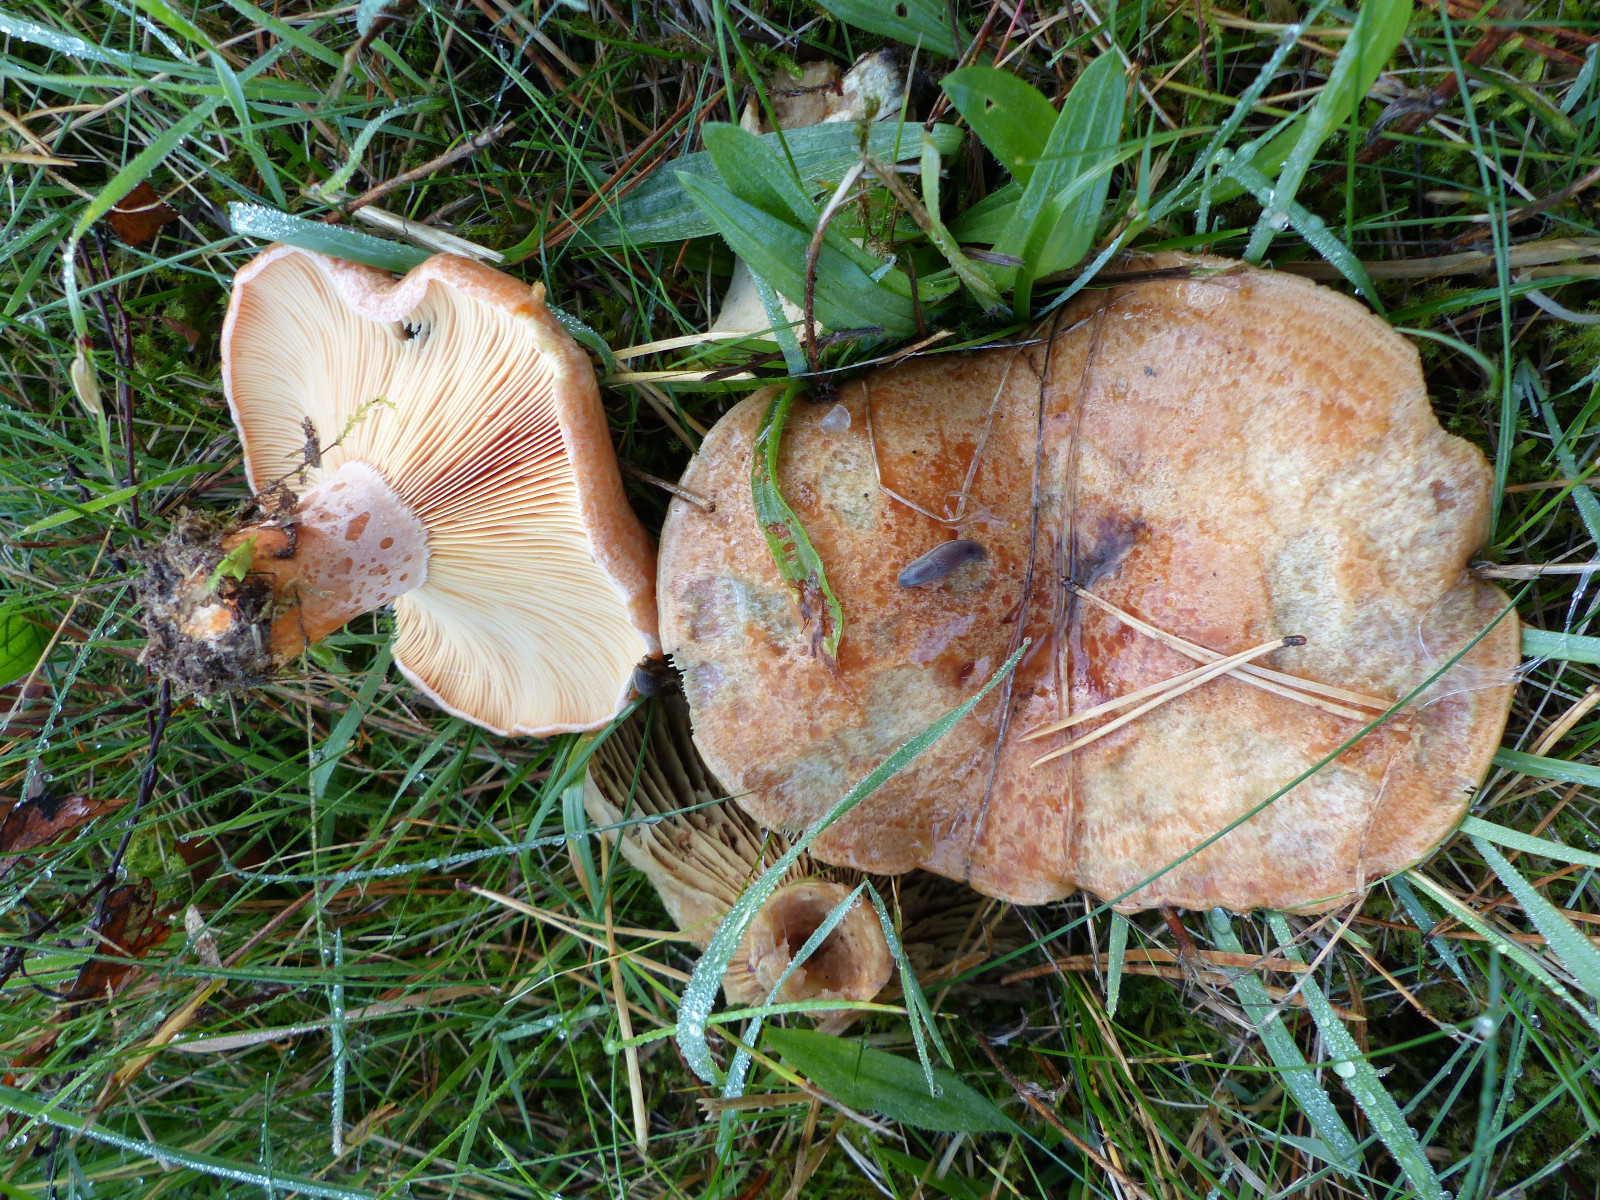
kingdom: Fungi
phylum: Basidiomycota
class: Agaricomycetes
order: Russulales
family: Russulaceae
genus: Lactarius
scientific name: Lactarius deliciosus
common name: velsmagende mælkehat
